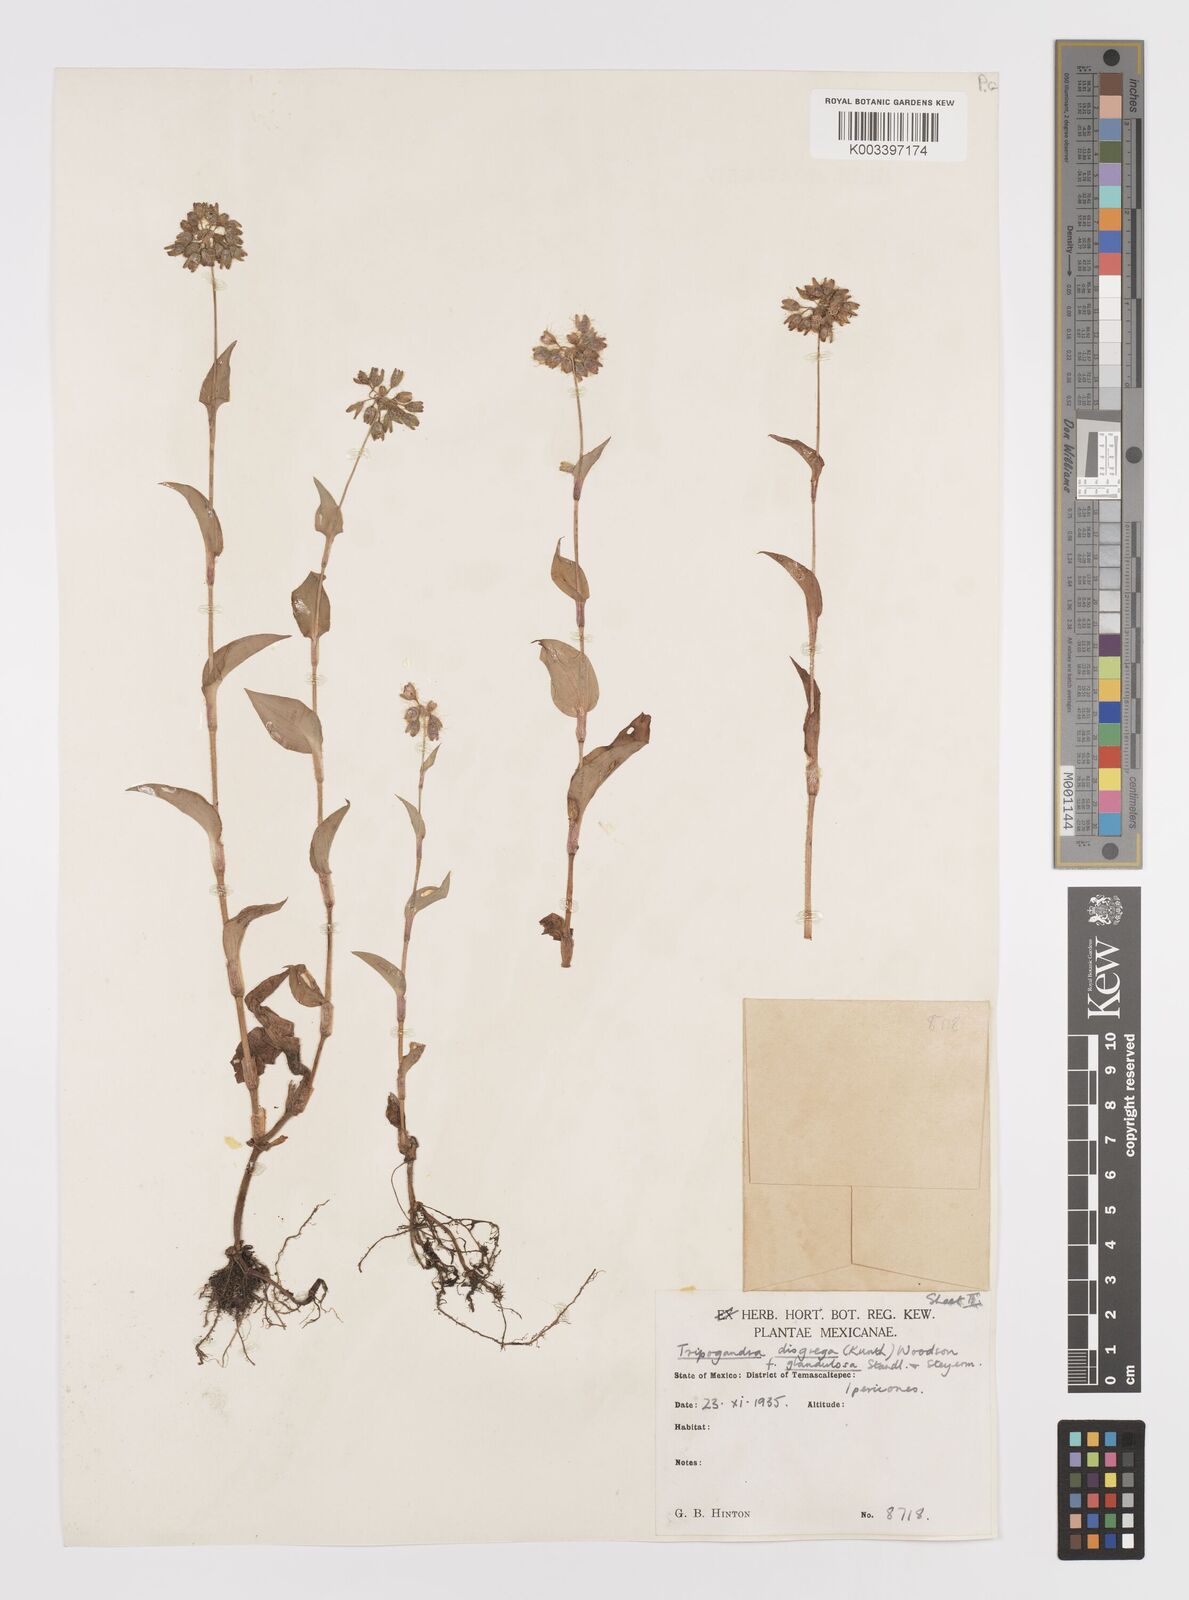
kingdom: Plantae
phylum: Tracheophyta
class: Liliopsida
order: Commelinales
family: Commelinaceae
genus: Callisia
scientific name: Callisia disgrega
